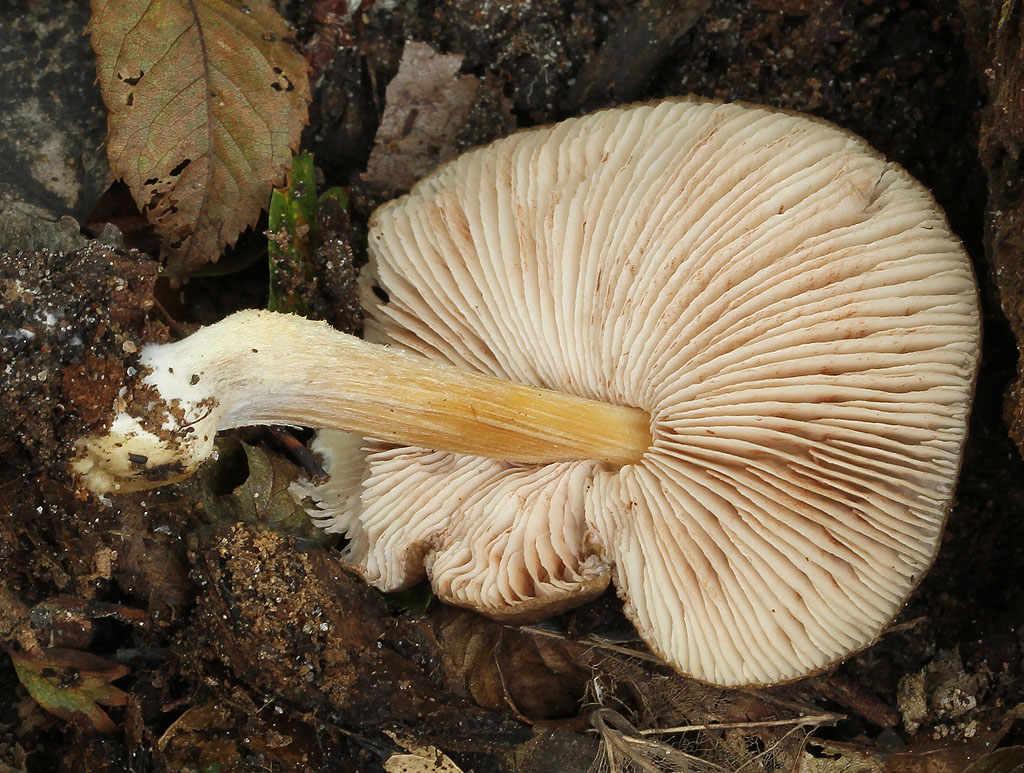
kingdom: Fungi
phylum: Basidiomycota
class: Agaricomycetes
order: Agaricales
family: Pluteaceae
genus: Pluteus
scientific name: Pluteus romellii
